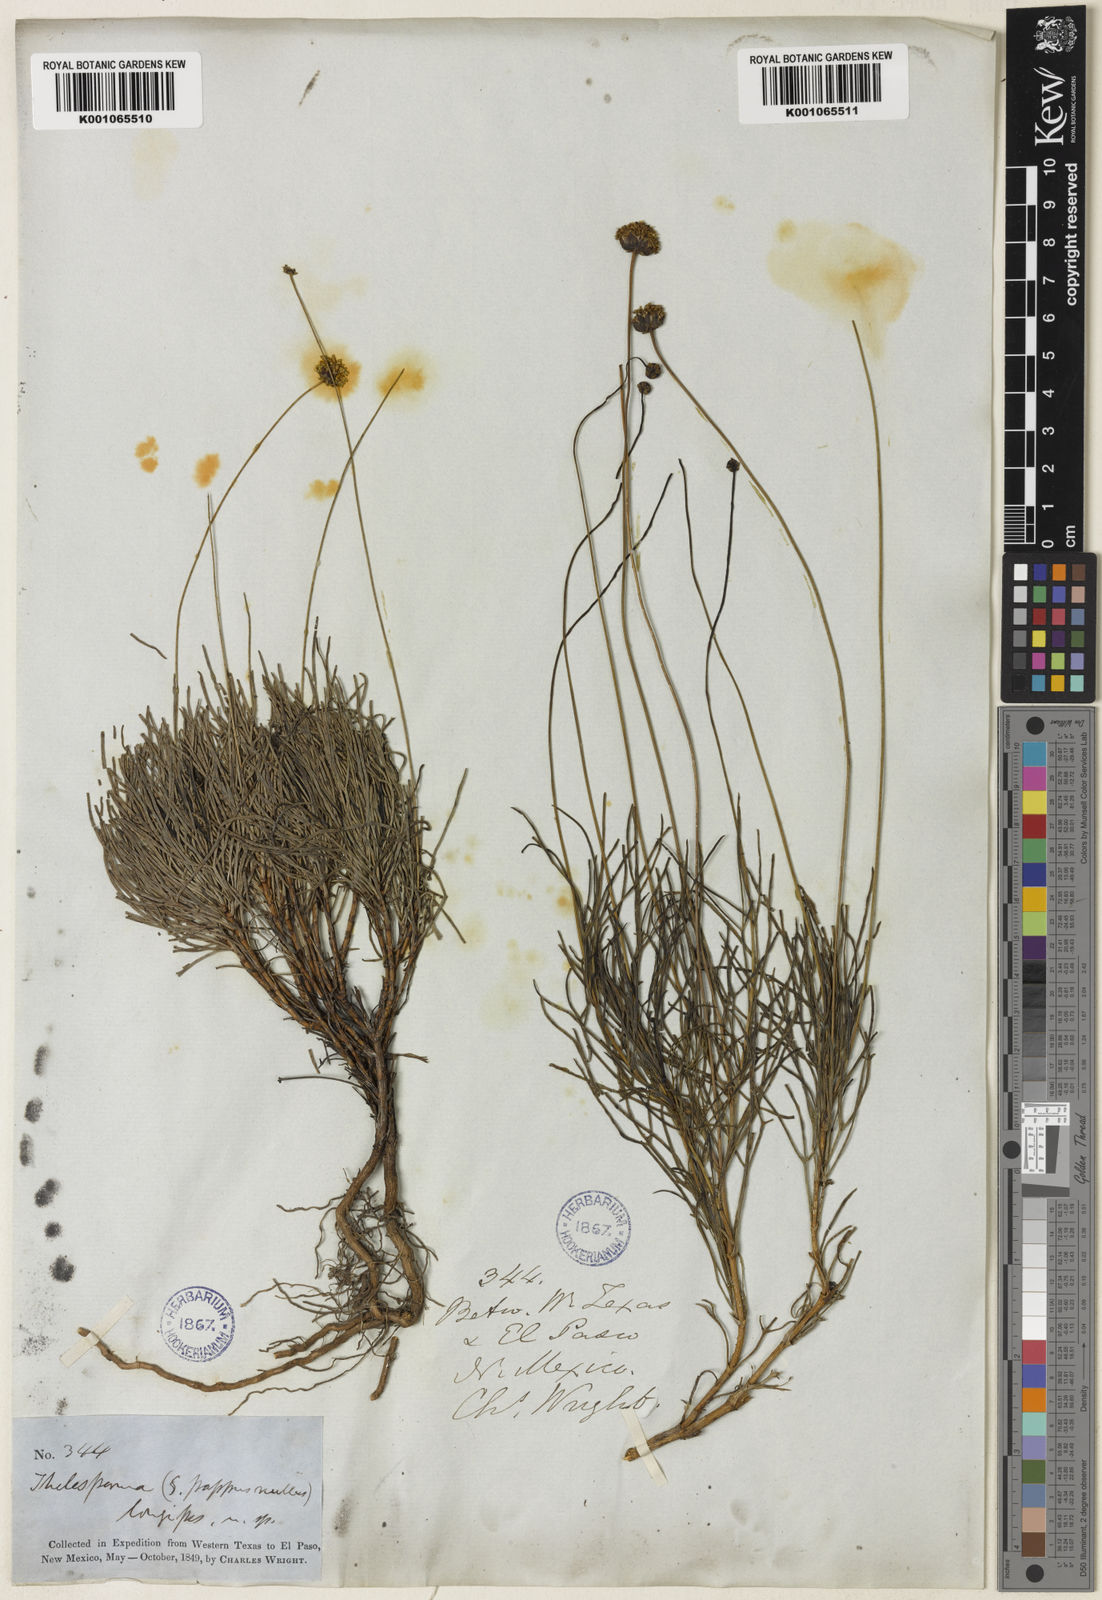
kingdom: Plantae
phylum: Tracheophyta
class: Magnoliopsida
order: Asterales
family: Asteraceae
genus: Thelesperma
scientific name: Thelesperma longipes
